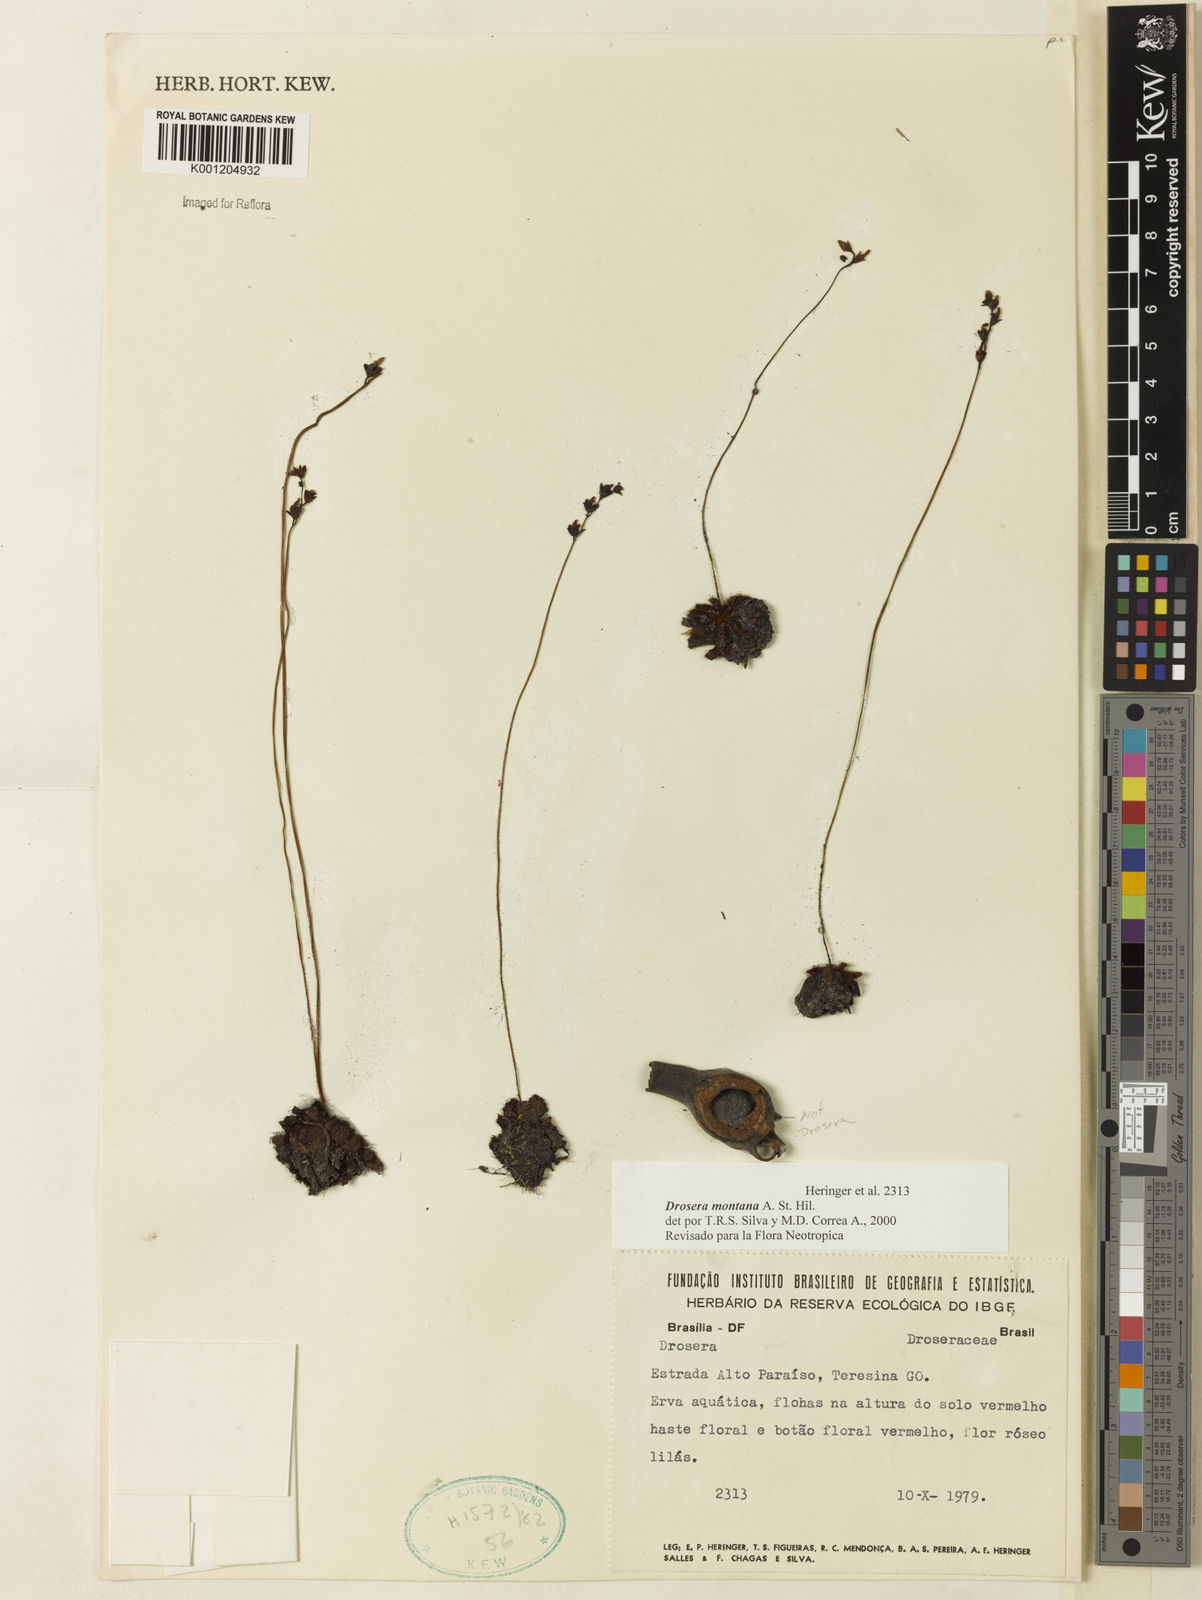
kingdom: Plantae
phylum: Tracheophyta
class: Magnoliopsida
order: Caryophyllales
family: Droseraceae
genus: Drosera
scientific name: Drosera montana
